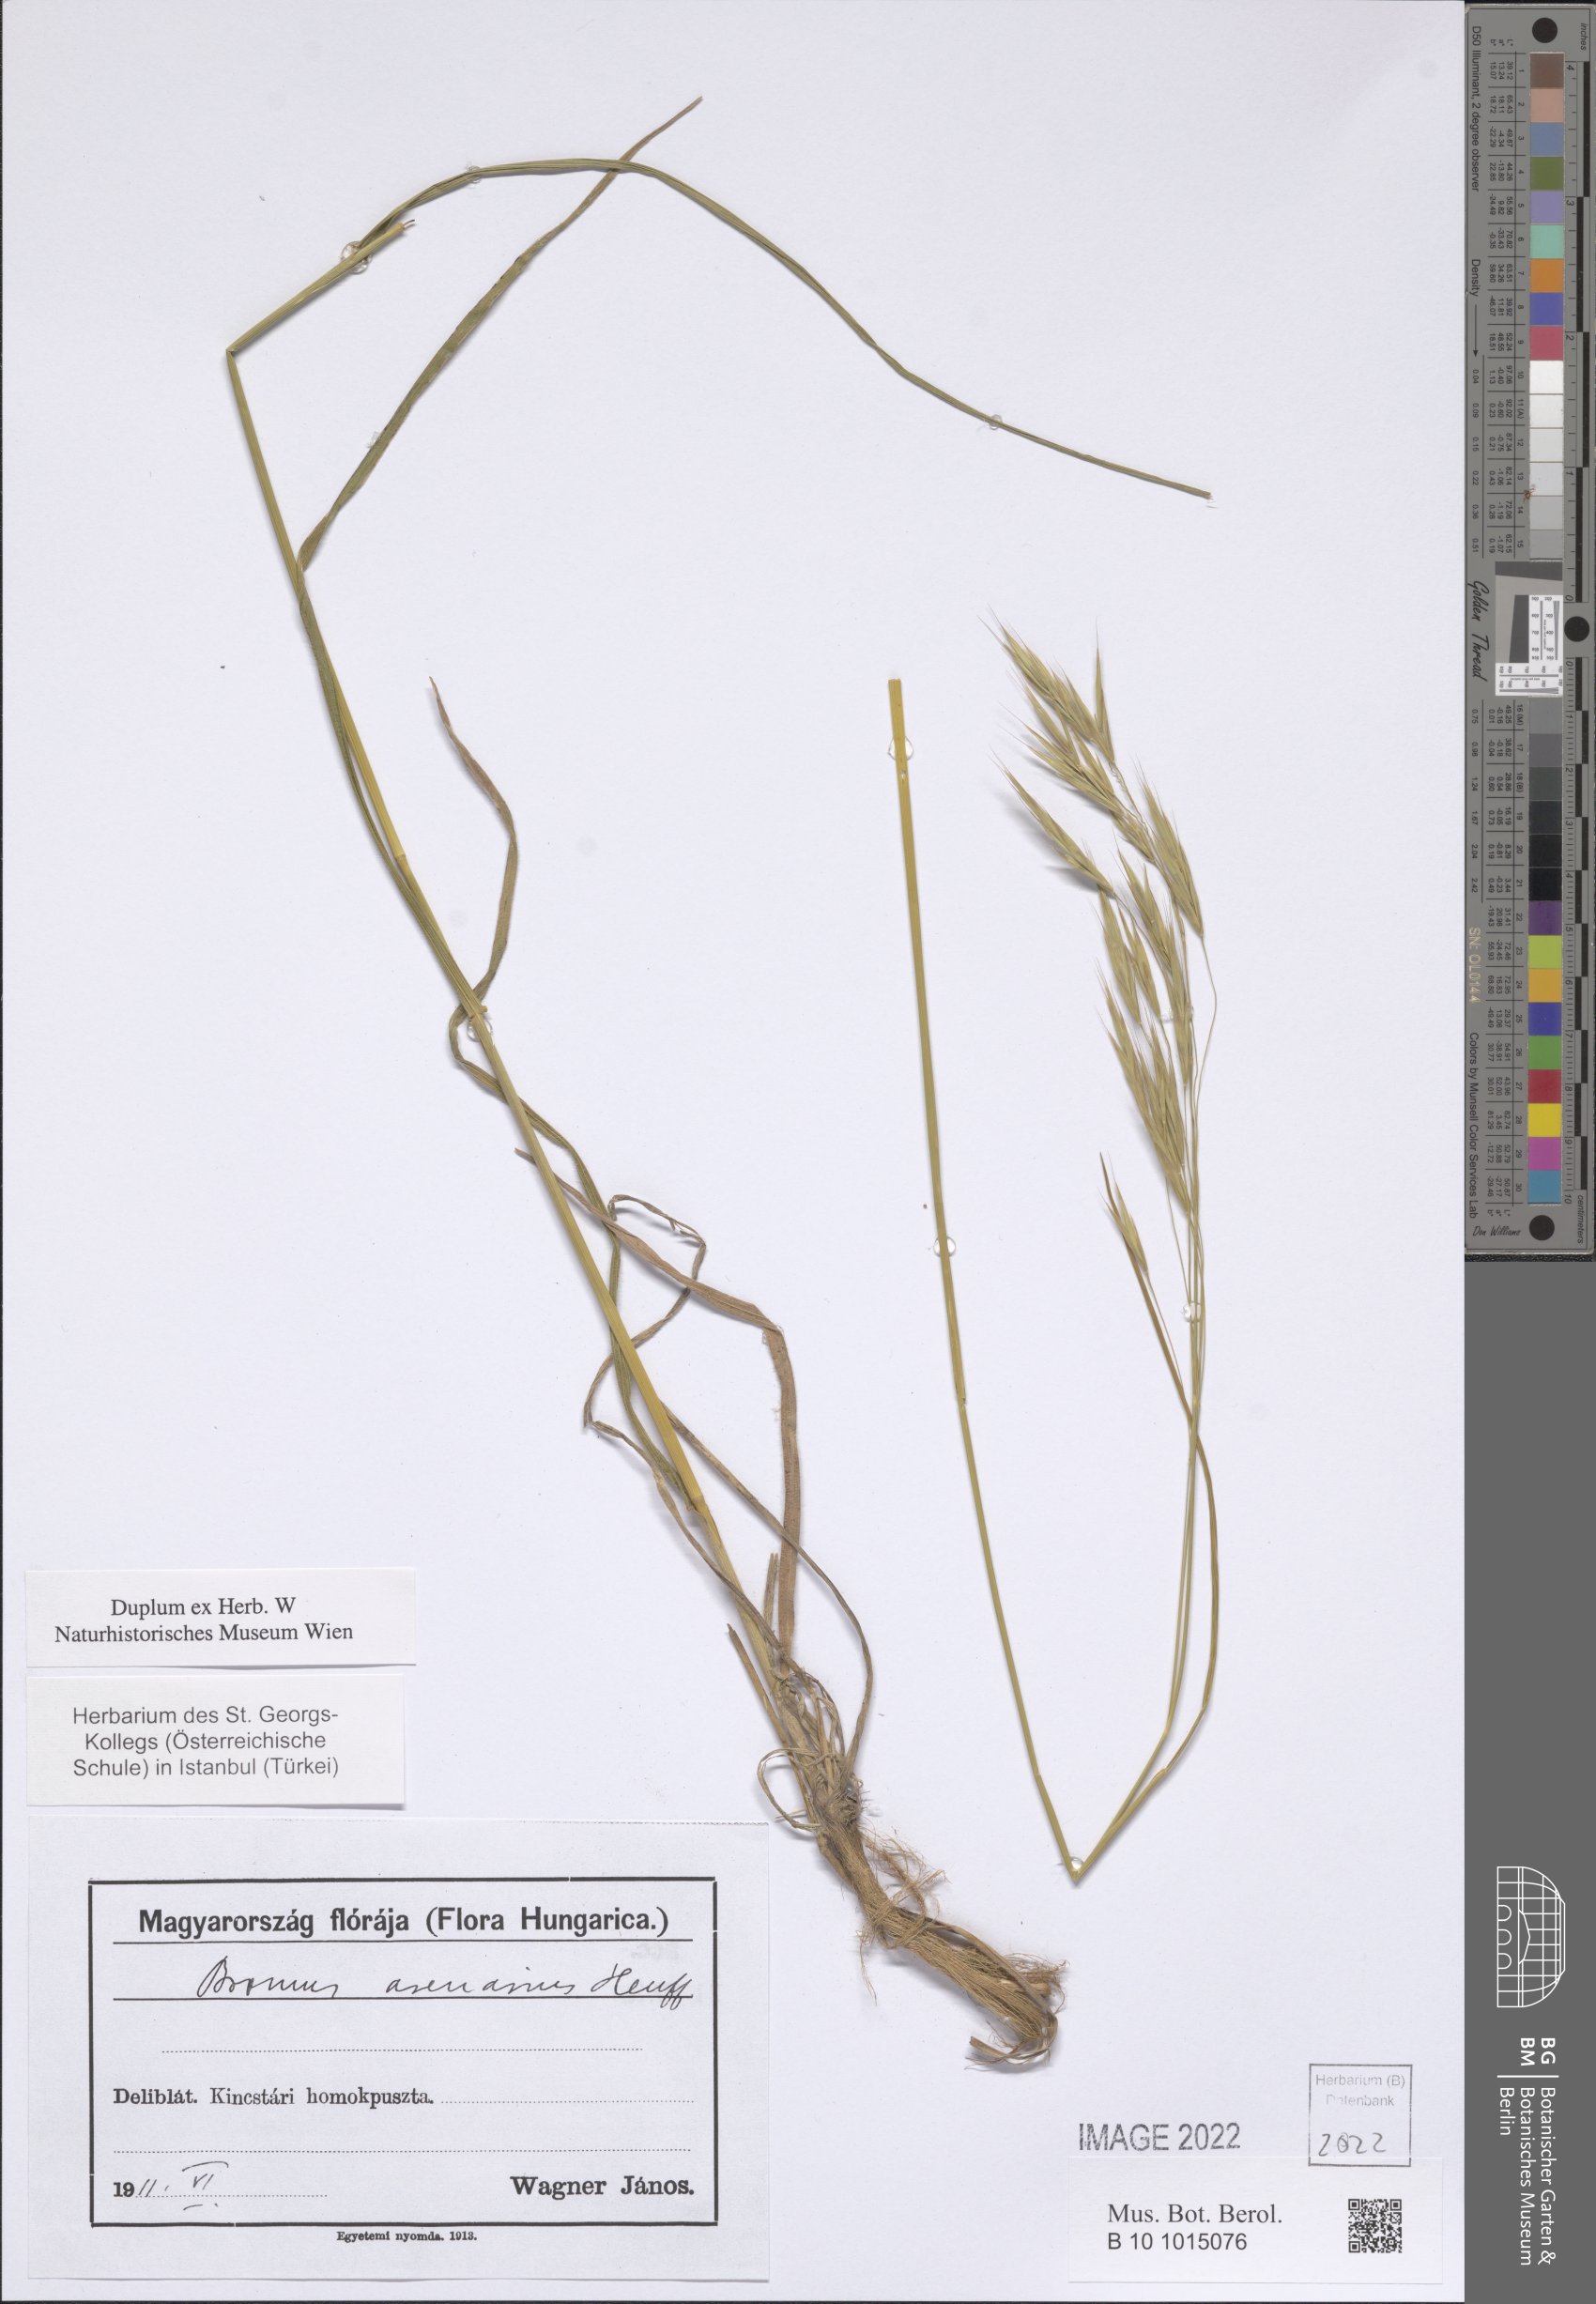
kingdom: Plantae
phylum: Tracheophyta
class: Liliopsida
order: Poales
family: Poaceae
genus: Bromus
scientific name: Bromus riparius
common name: Meadow brome
